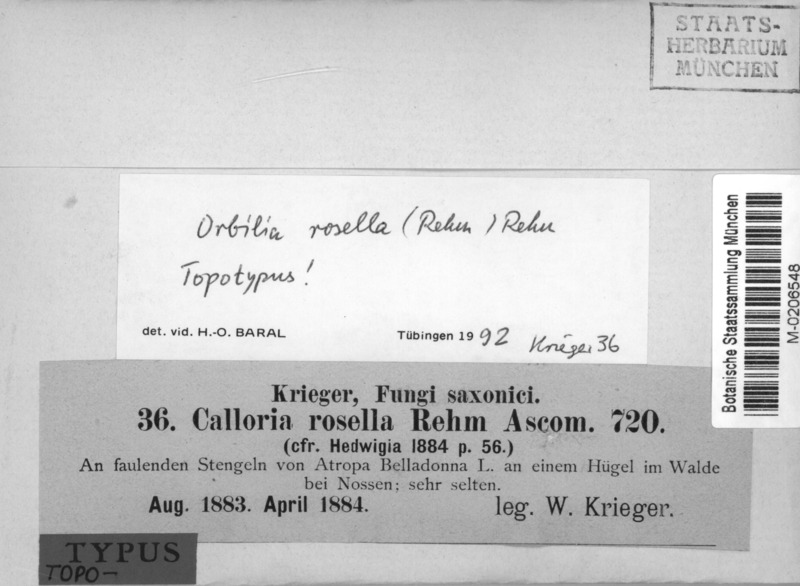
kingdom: Fungi
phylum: Ascomycota
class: Orbiliomycetes
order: Orbiliales
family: Orbiliaceae
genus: Orbilia
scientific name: Orbilia rosella
